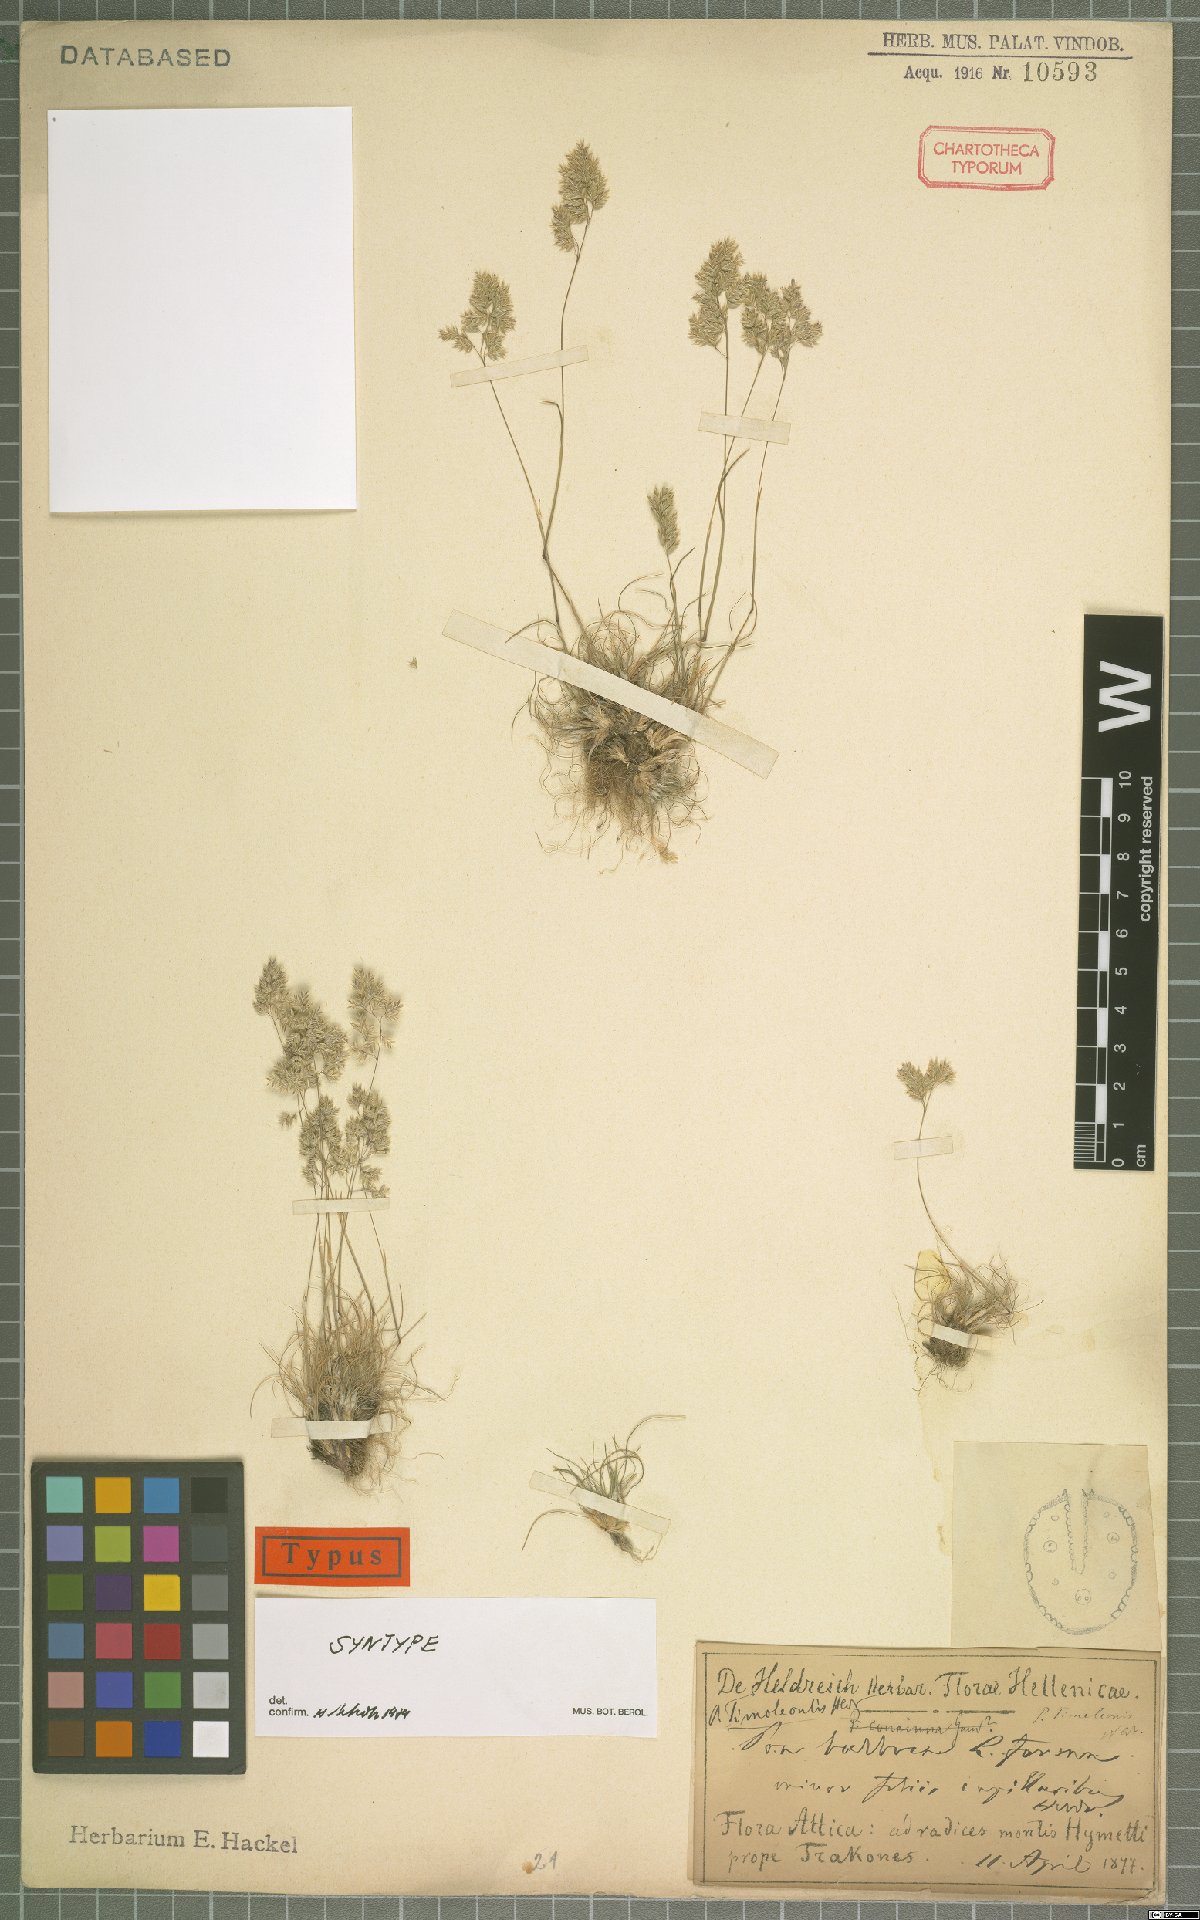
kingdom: Plantae
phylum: Tracheophyta
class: Liliopsida
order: Poales
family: Poaceae
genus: Poa
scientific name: Poa timoleontis
